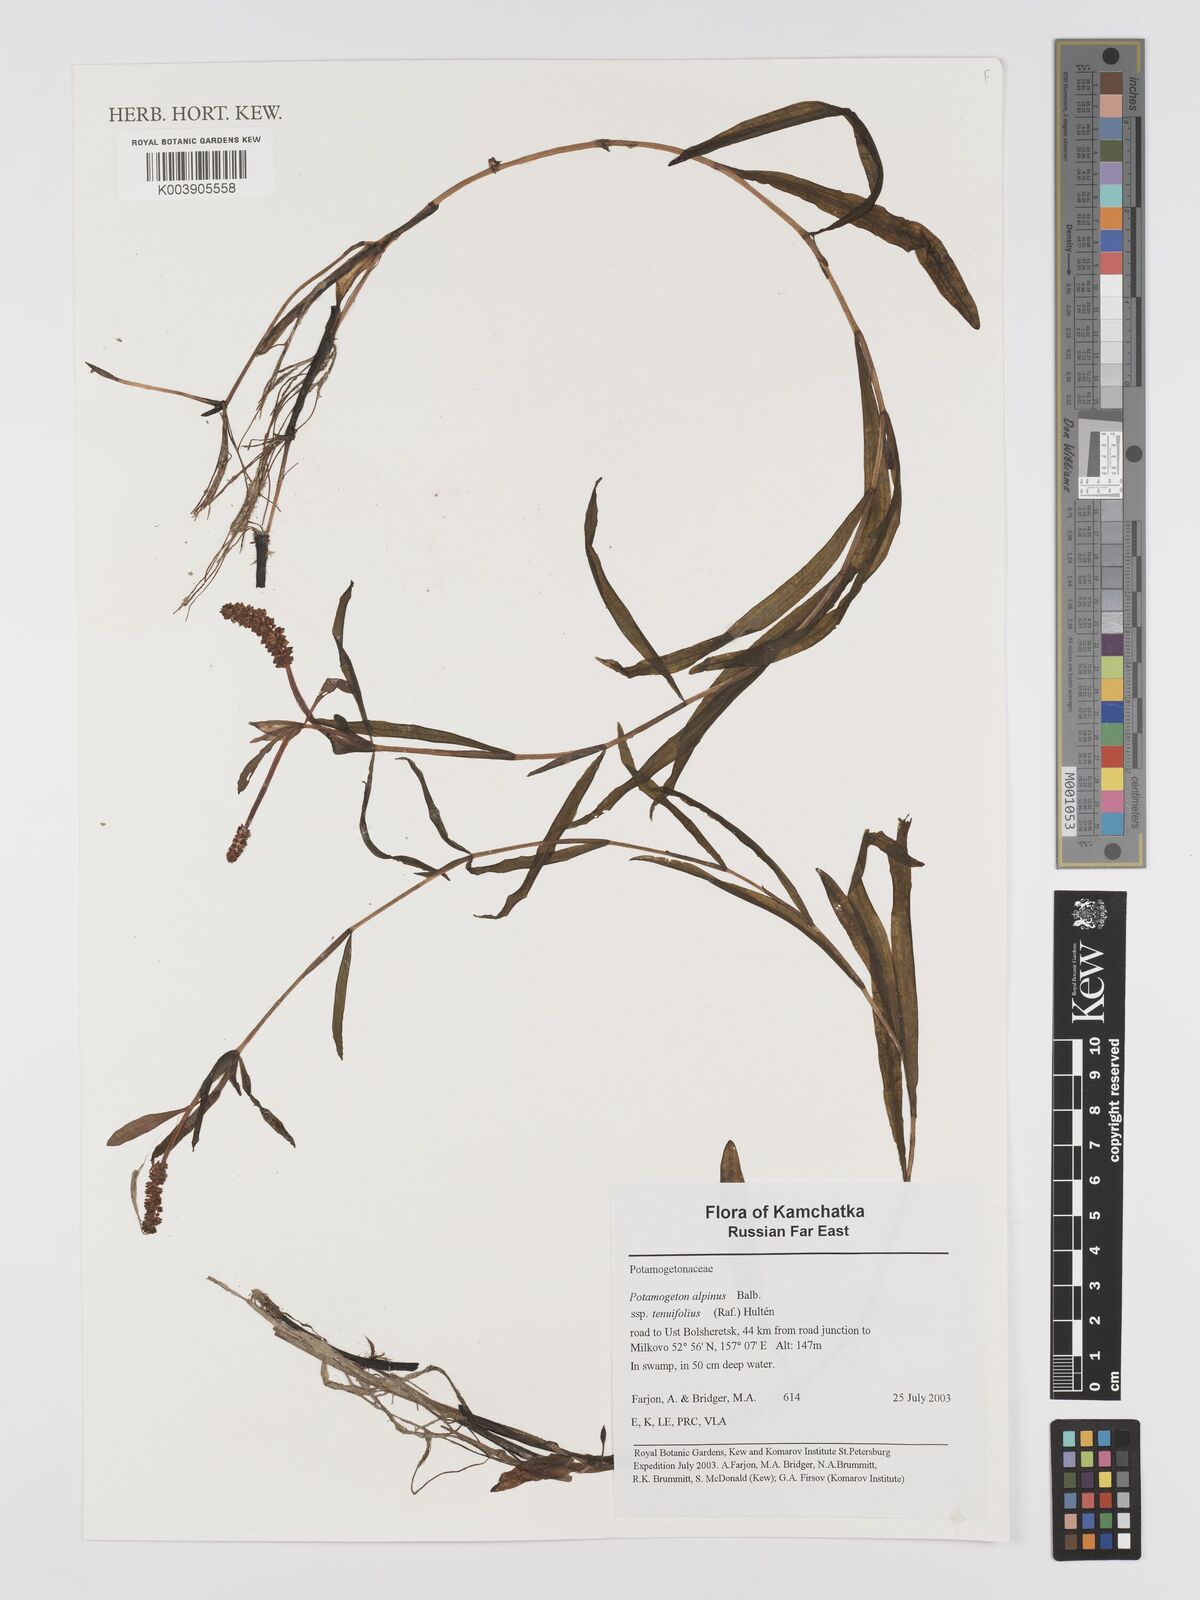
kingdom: Plantae
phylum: Tracheophyta
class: Liliopsida
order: Alismatales
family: Potamogetonaceae
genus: Potamogeton
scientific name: Potamogeton alpinus
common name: Red pondweed
